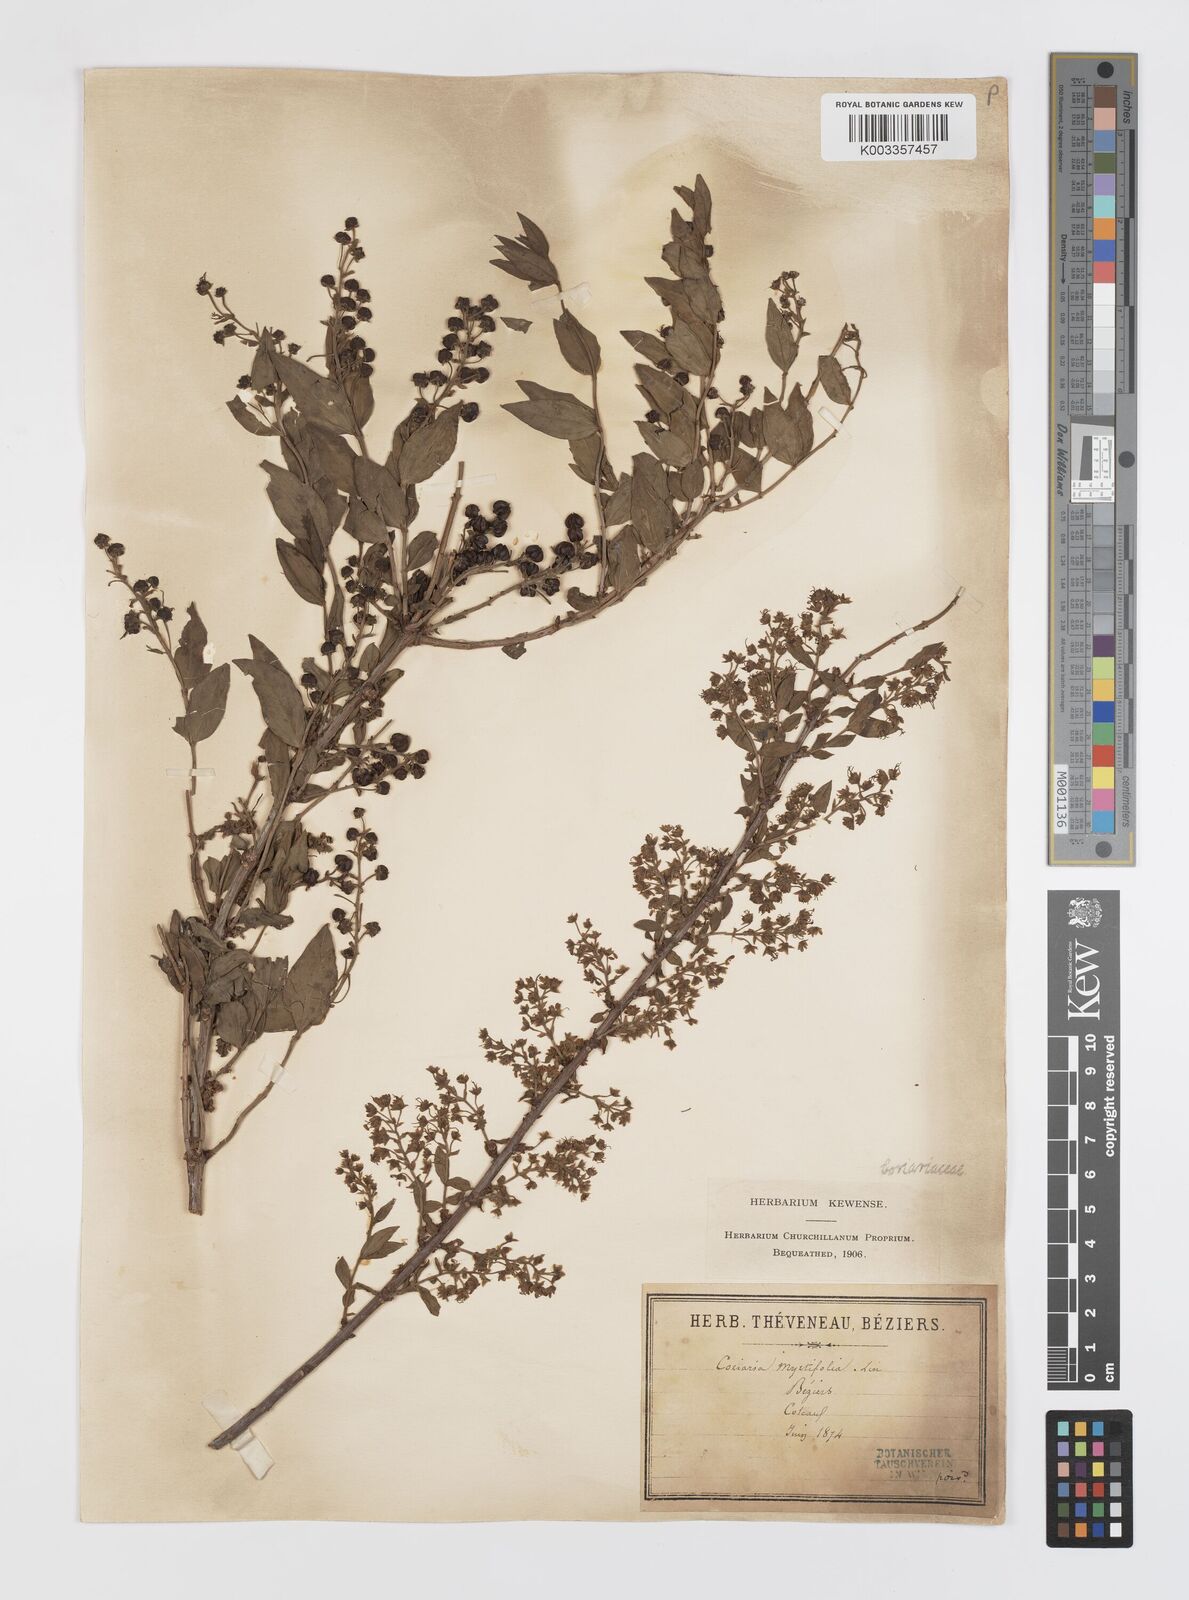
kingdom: Plantae
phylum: Tracheophyta
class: Magnoliopsida
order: Cucurbitales
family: Coriariaceae
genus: Coriaria
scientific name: Coriaria myrtifolia
